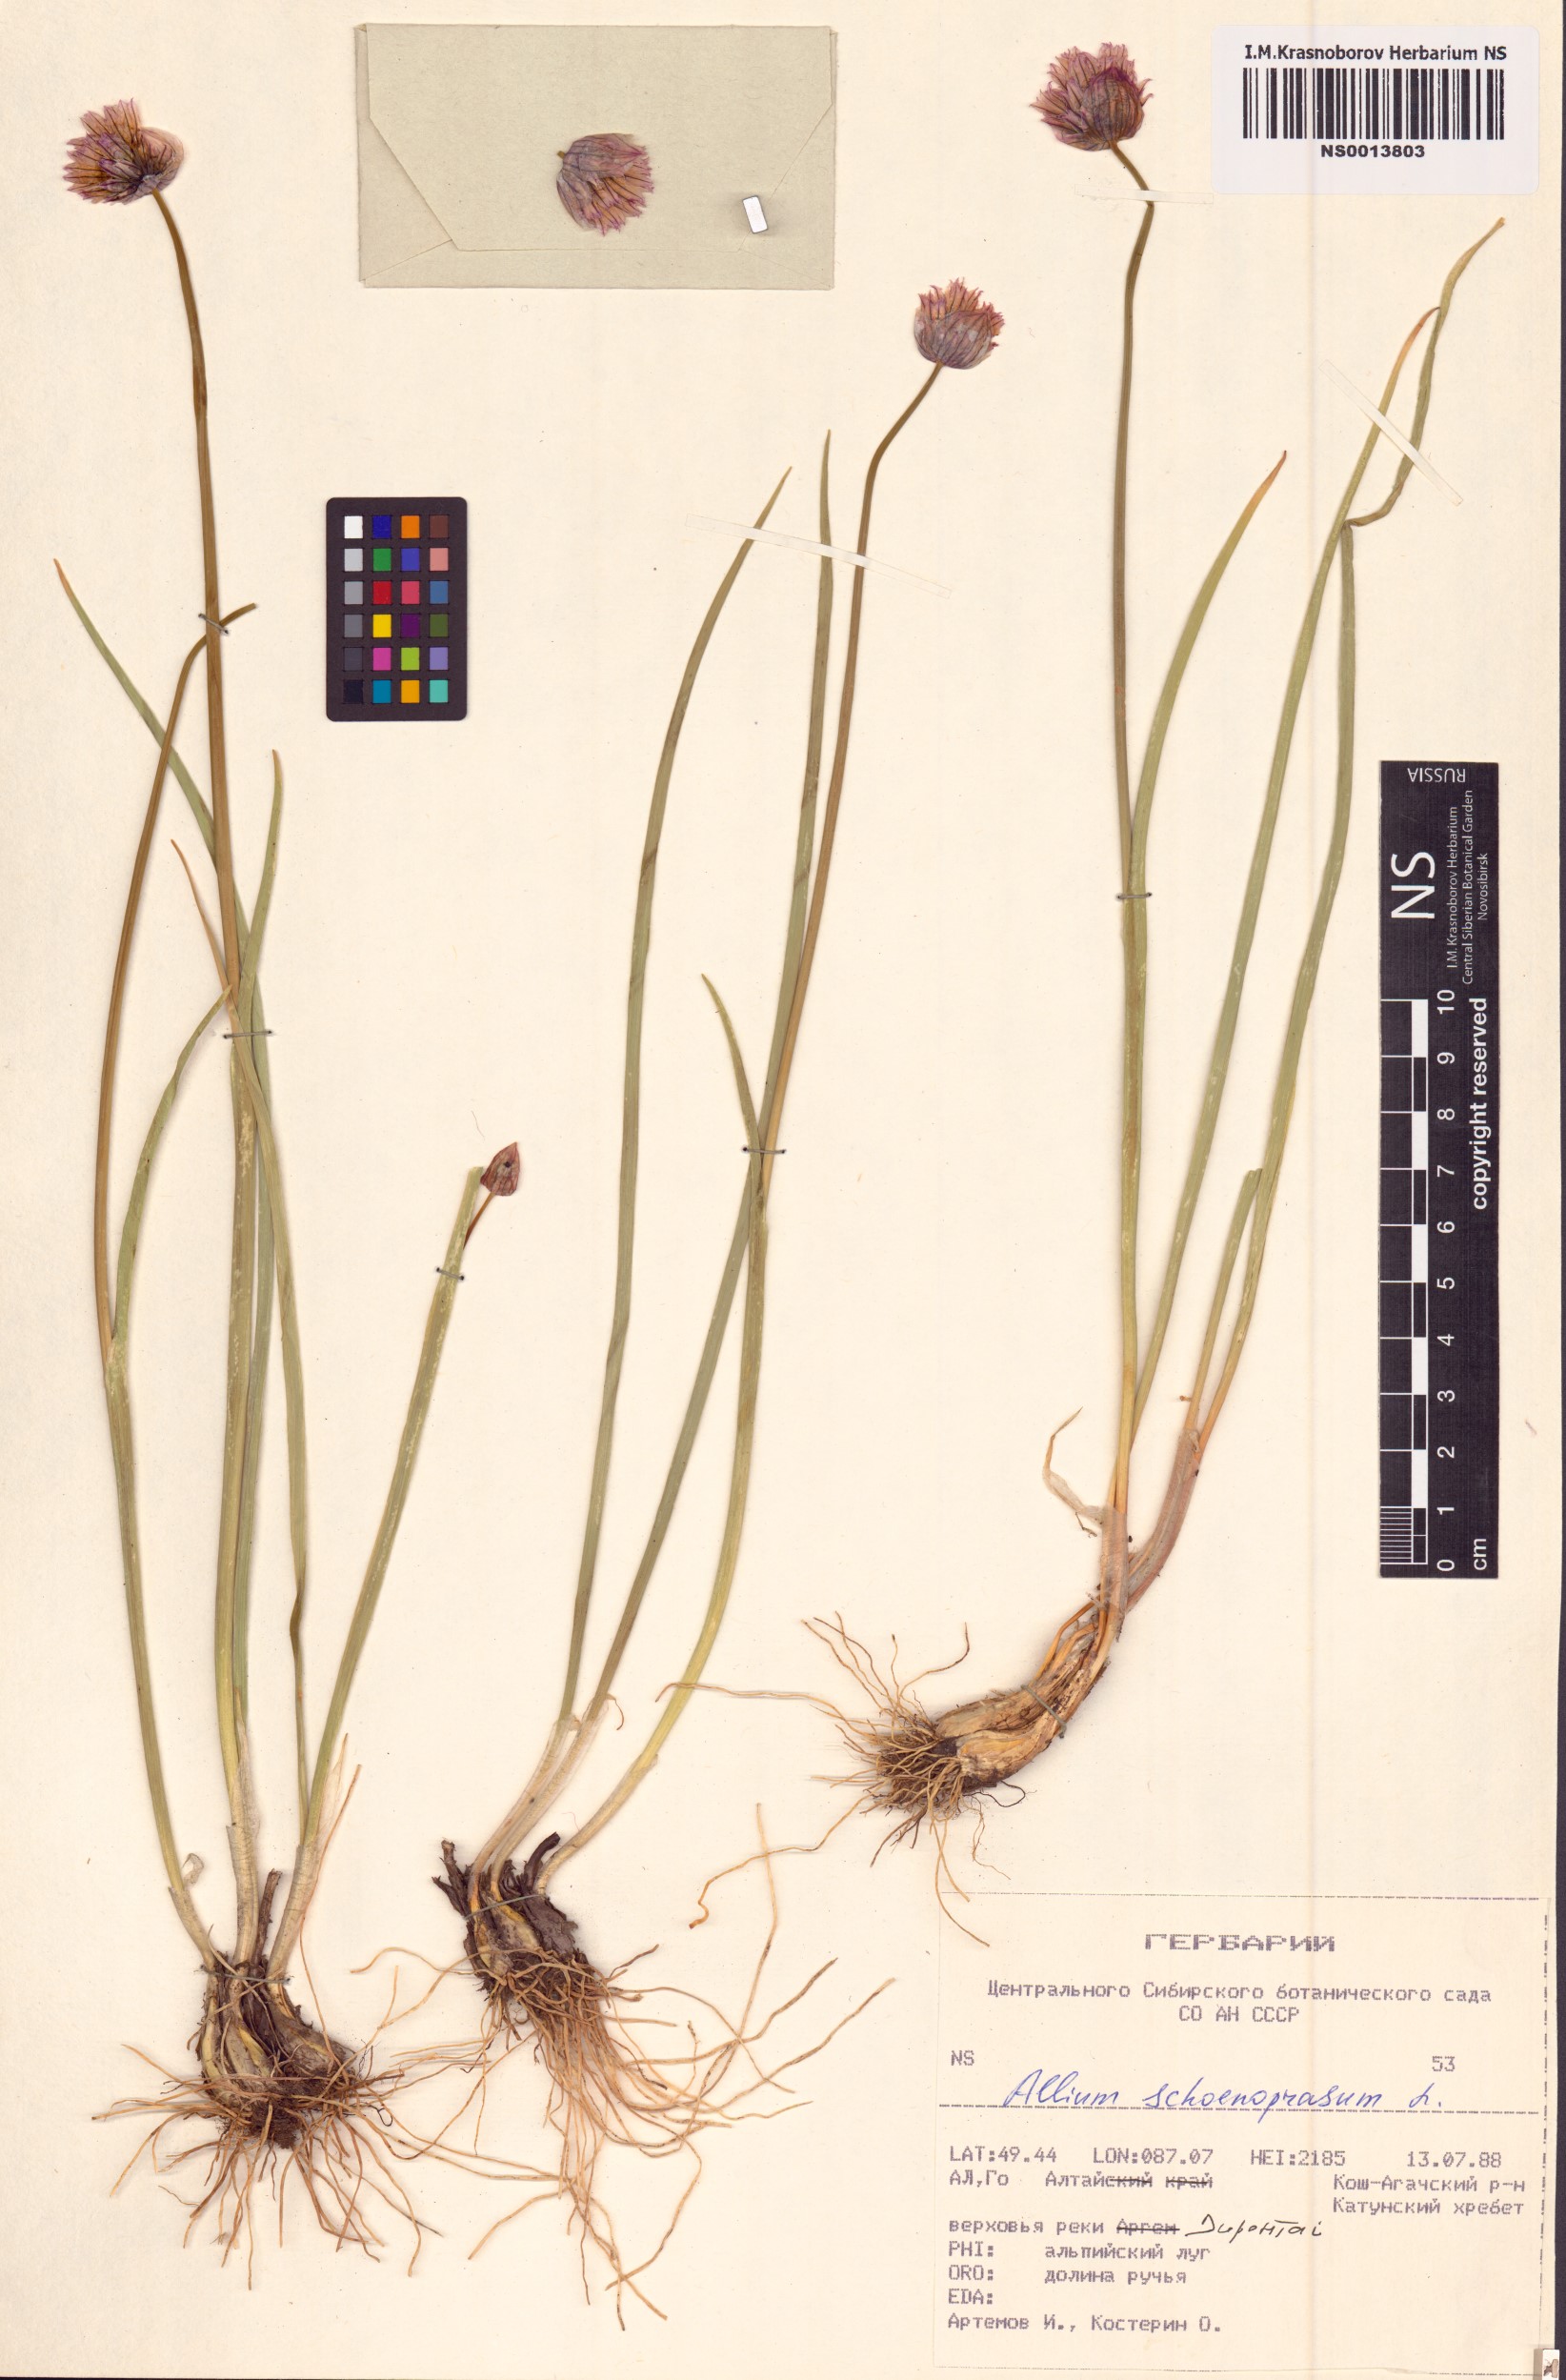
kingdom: Plantae
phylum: Tracheophyta
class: Liliopsida
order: Asparagales
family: Amaryllidaceae
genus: Allium
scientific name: Allium schoenoprasum
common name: Chives
